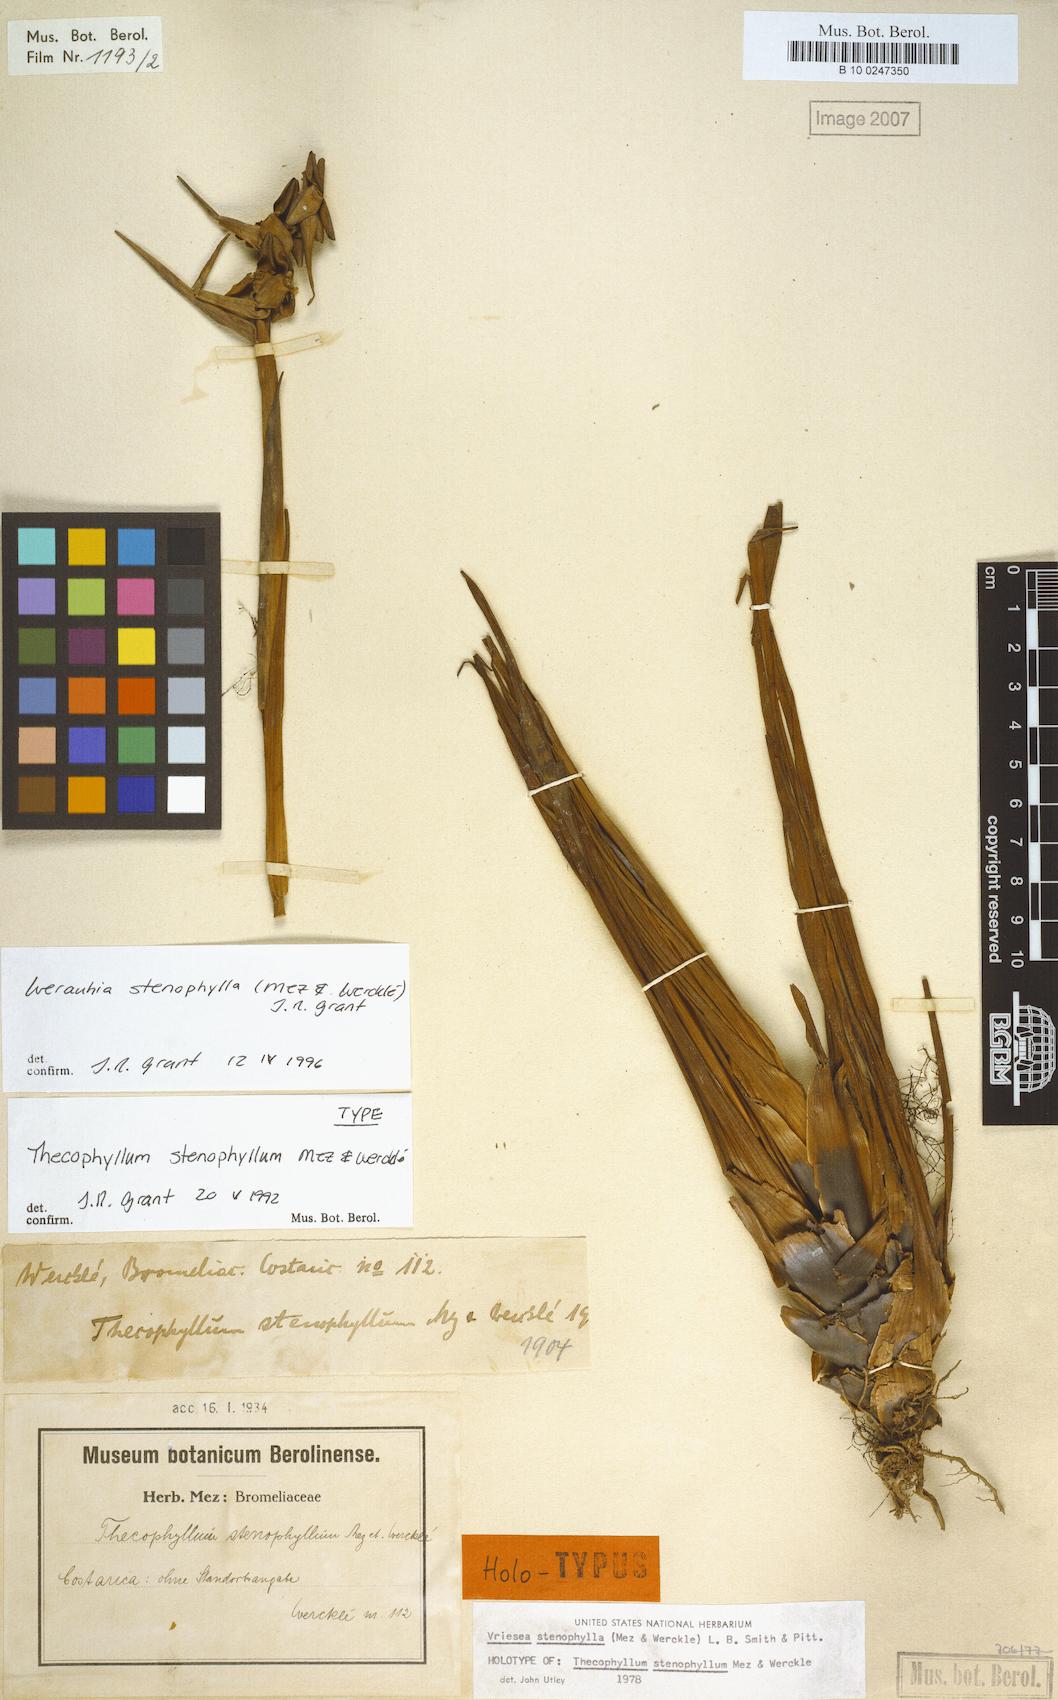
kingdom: Plantae
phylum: Tracheophyta
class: Liliopsida
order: Poales
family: Bromeliaceae
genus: Werauhia
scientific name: Werauhia stenophylla
